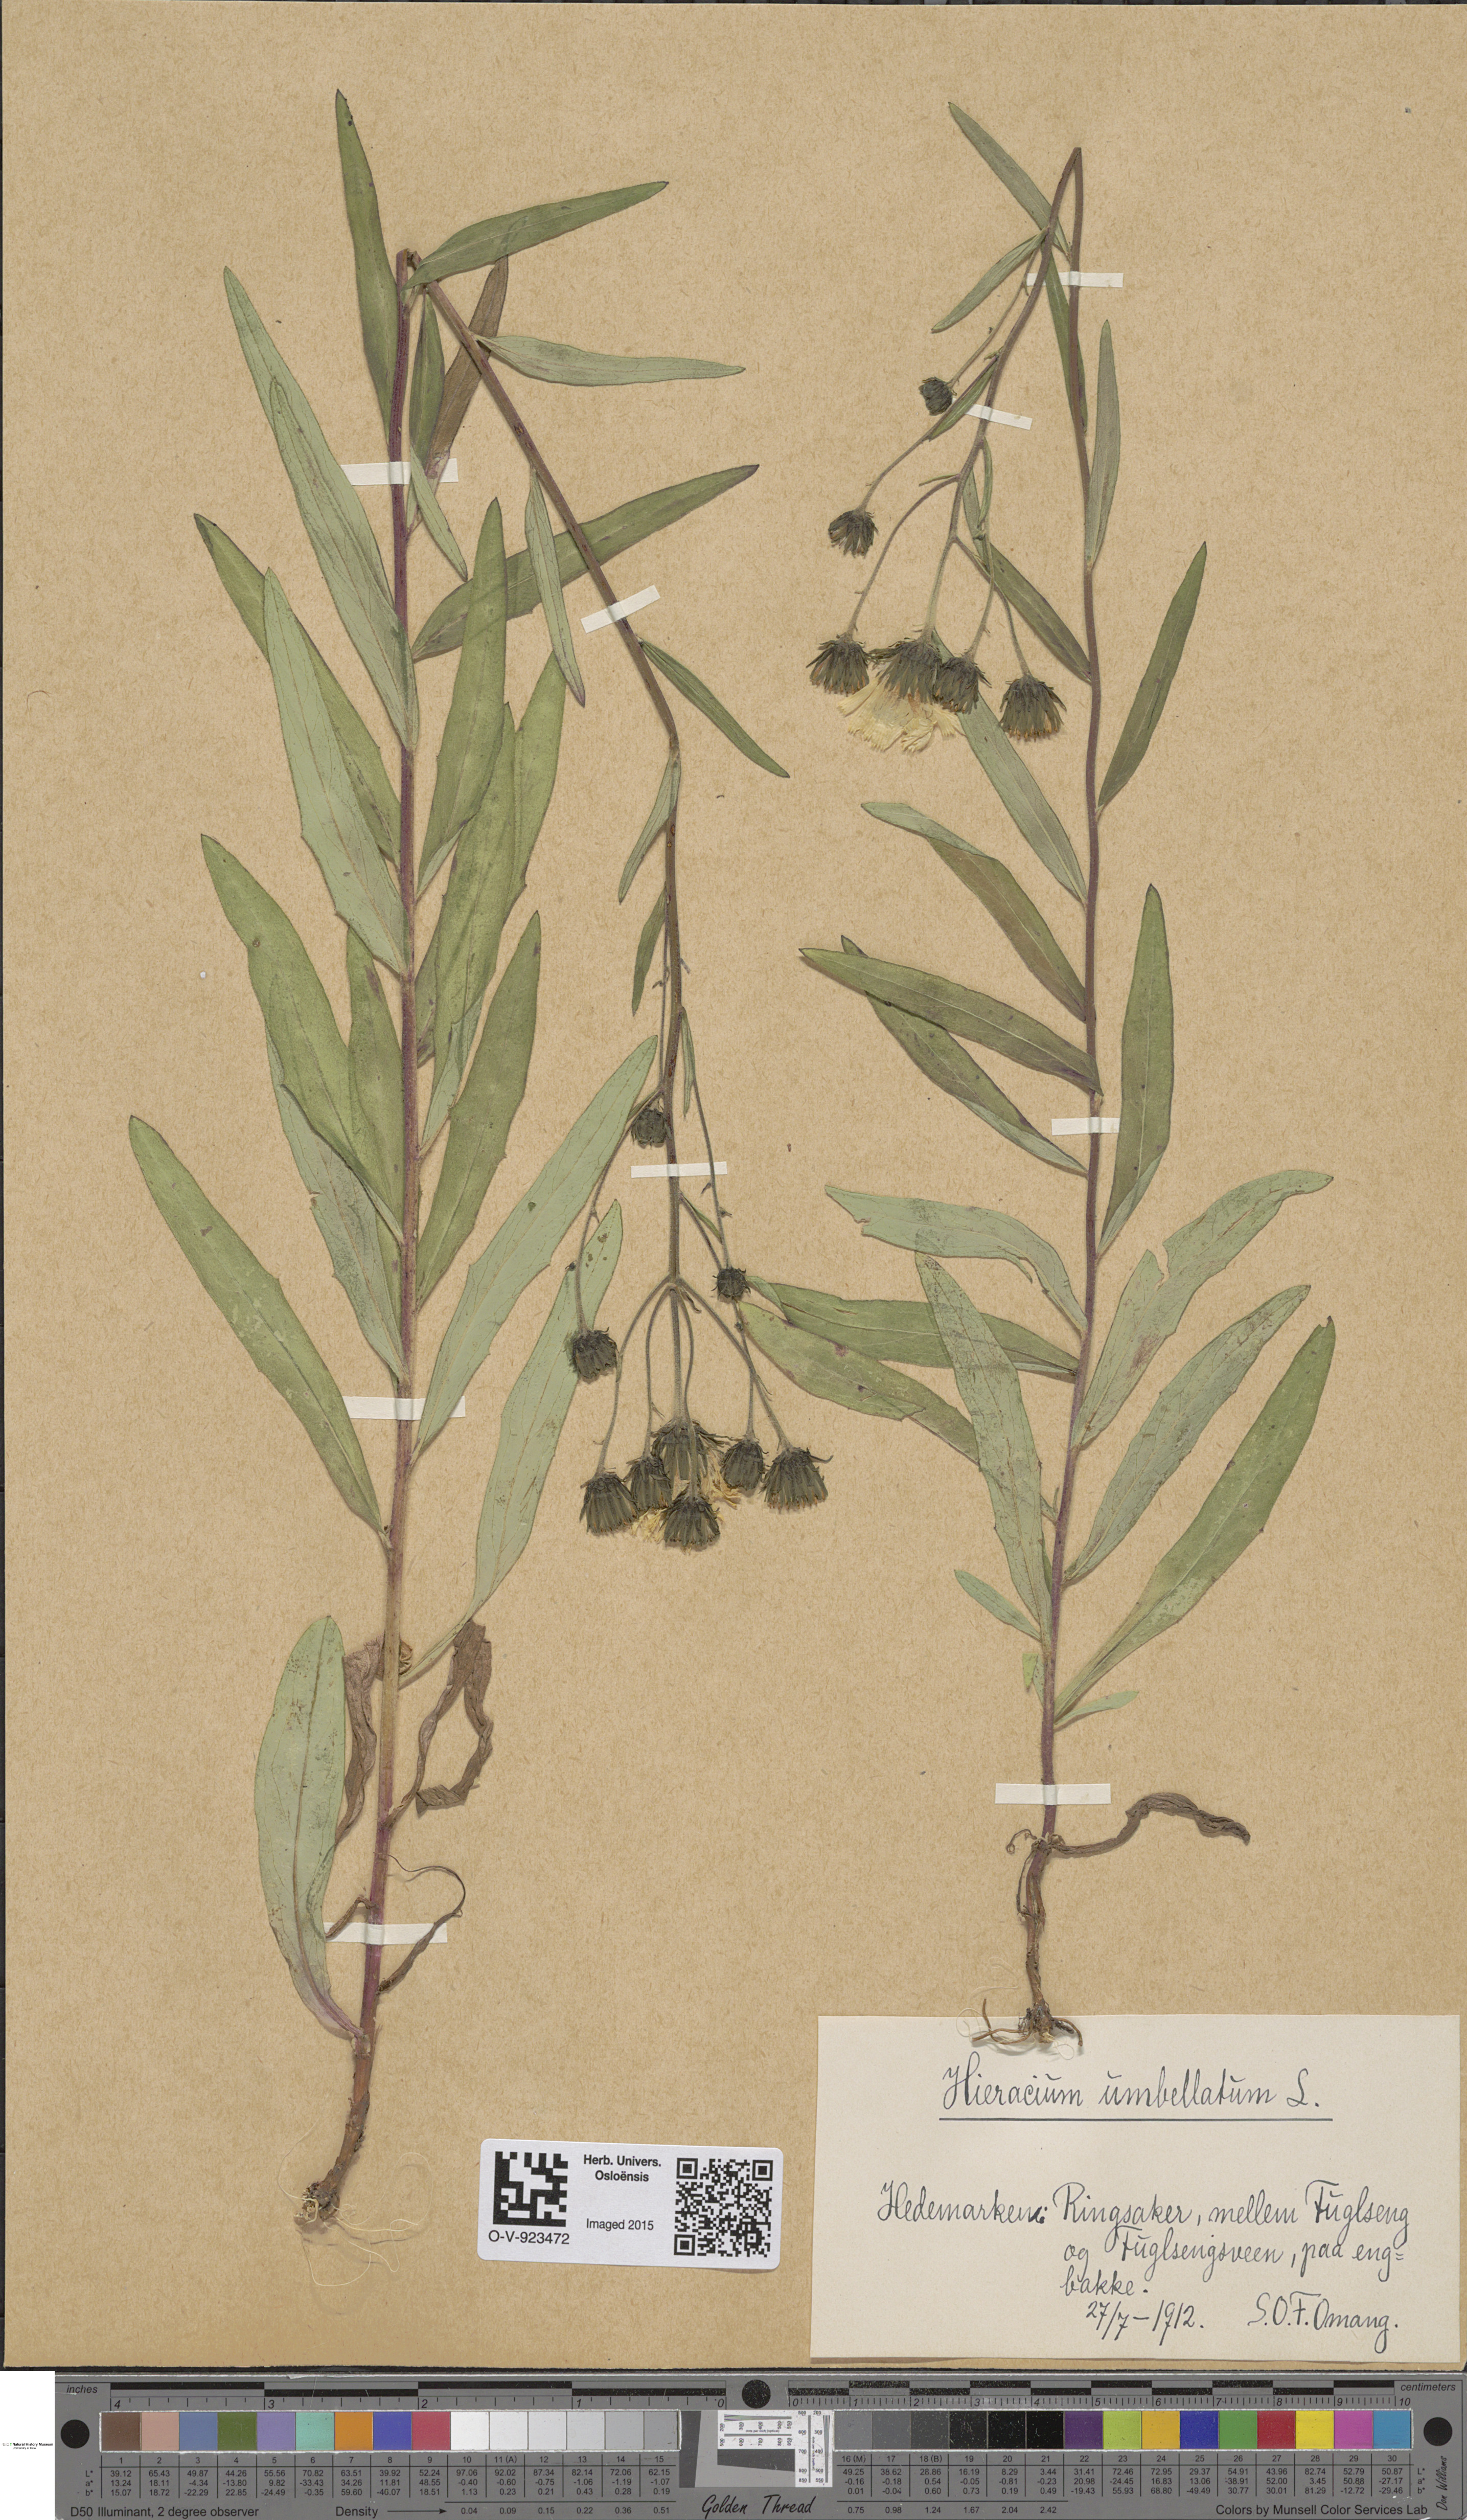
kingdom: Plantae
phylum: Tracheophyta
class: Magnoliopsida
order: Asterales
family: Asteraceae
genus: Hieracium
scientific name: Hieracium umbellatum
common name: Northern hawkweed
